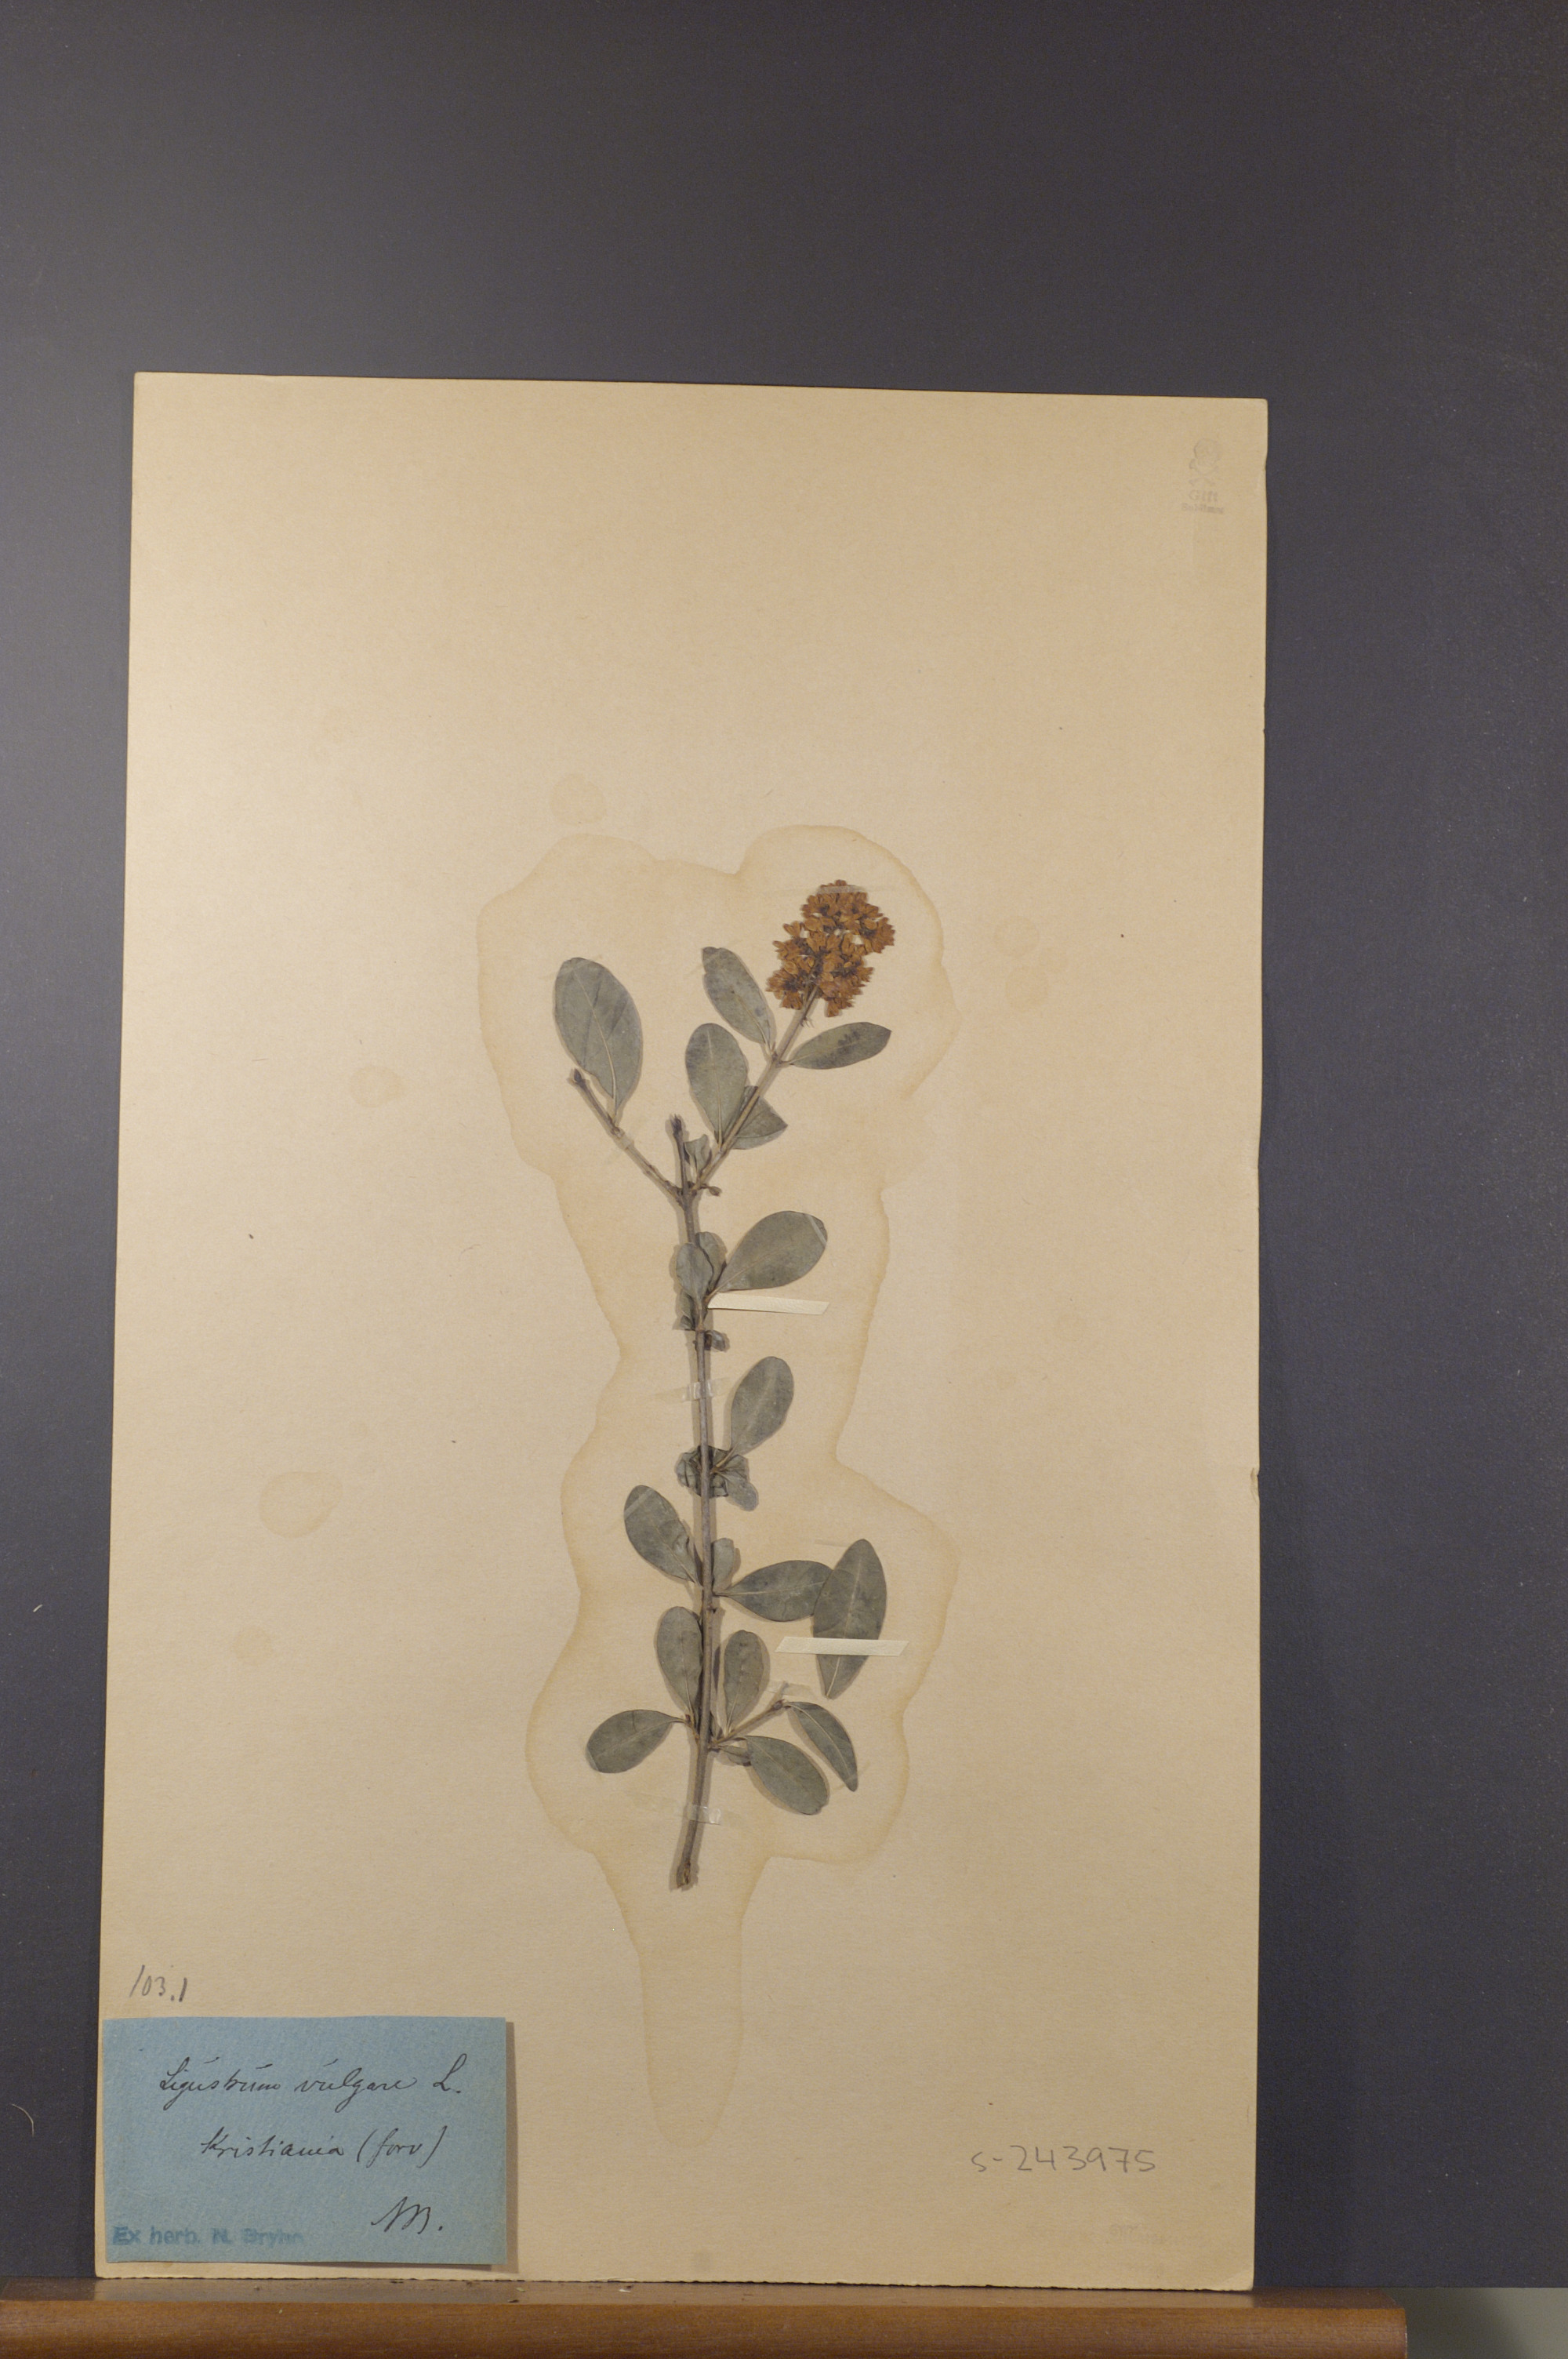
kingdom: Plantae
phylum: Tracheophyta
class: Magnoliopsida
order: Lamiales
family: Oleaceae
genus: Ligustrum
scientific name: Ligustrum vulgare
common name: Wild privet
